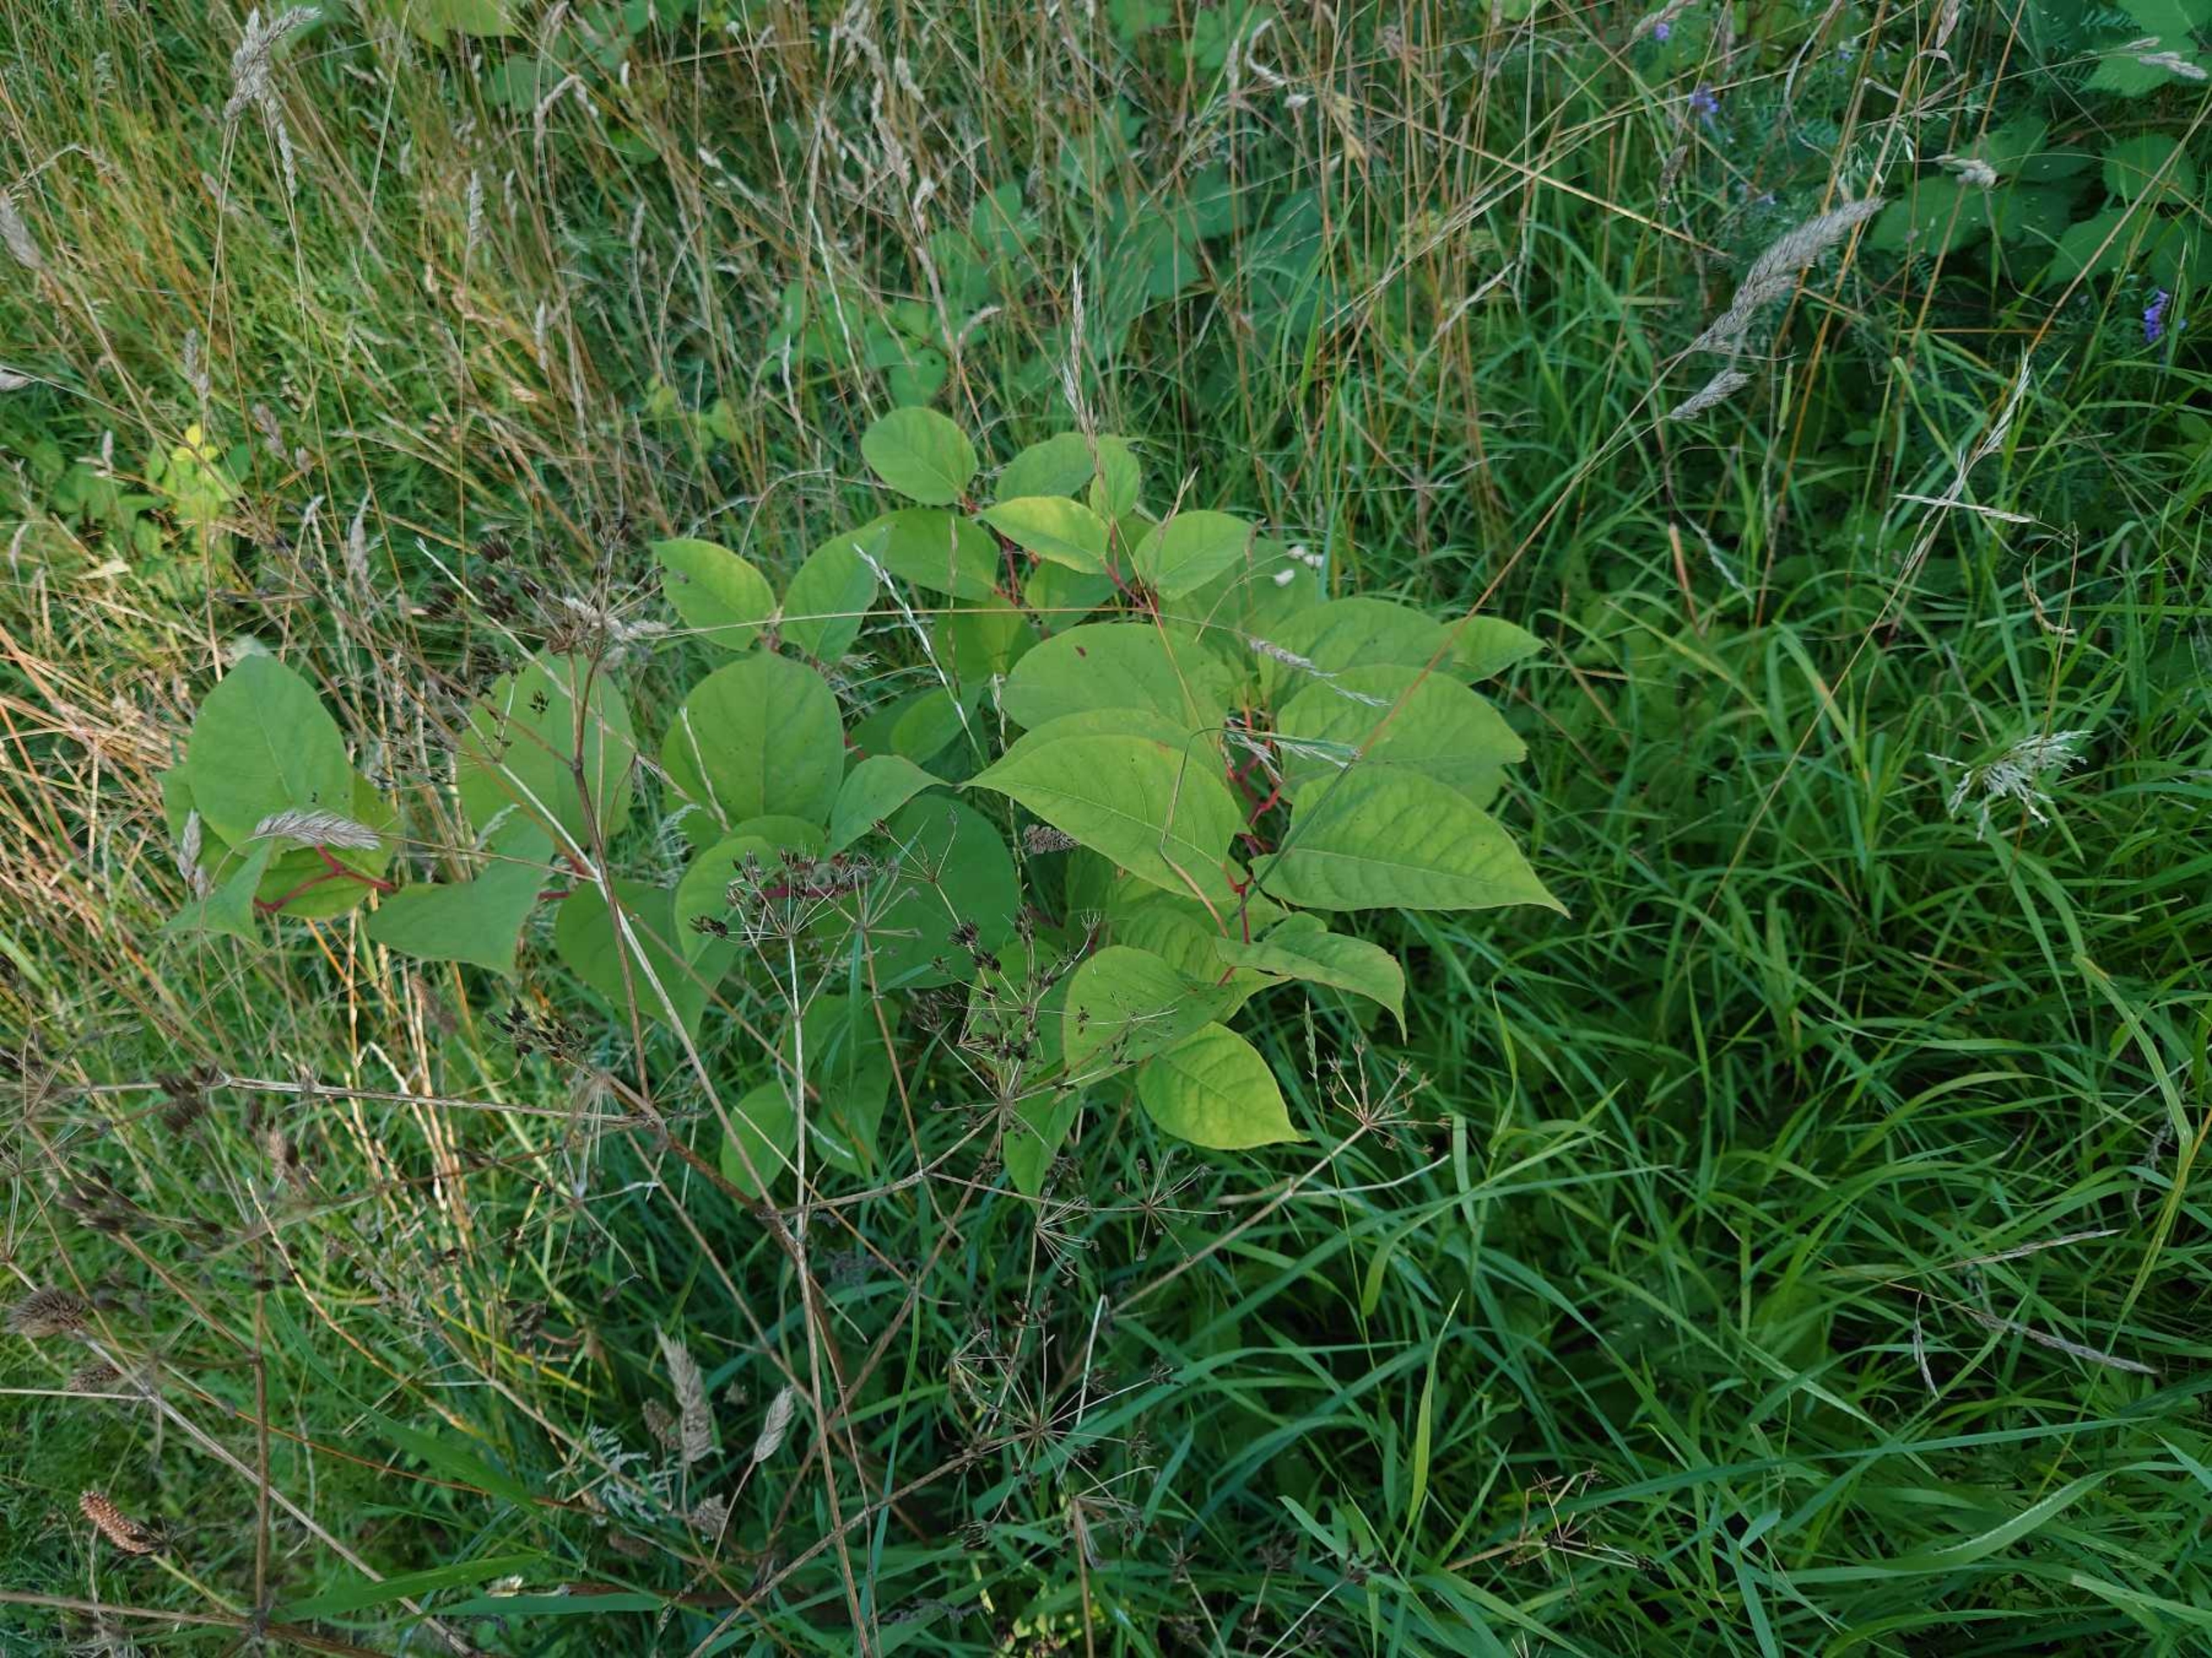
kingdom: Plantae
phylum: Tracheophyta
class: Magnoliopsida
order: Caryophyllales
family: Polygonaceae
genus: Reynoutria
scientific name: Reynoutria japonica
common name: Japan-pileurt
